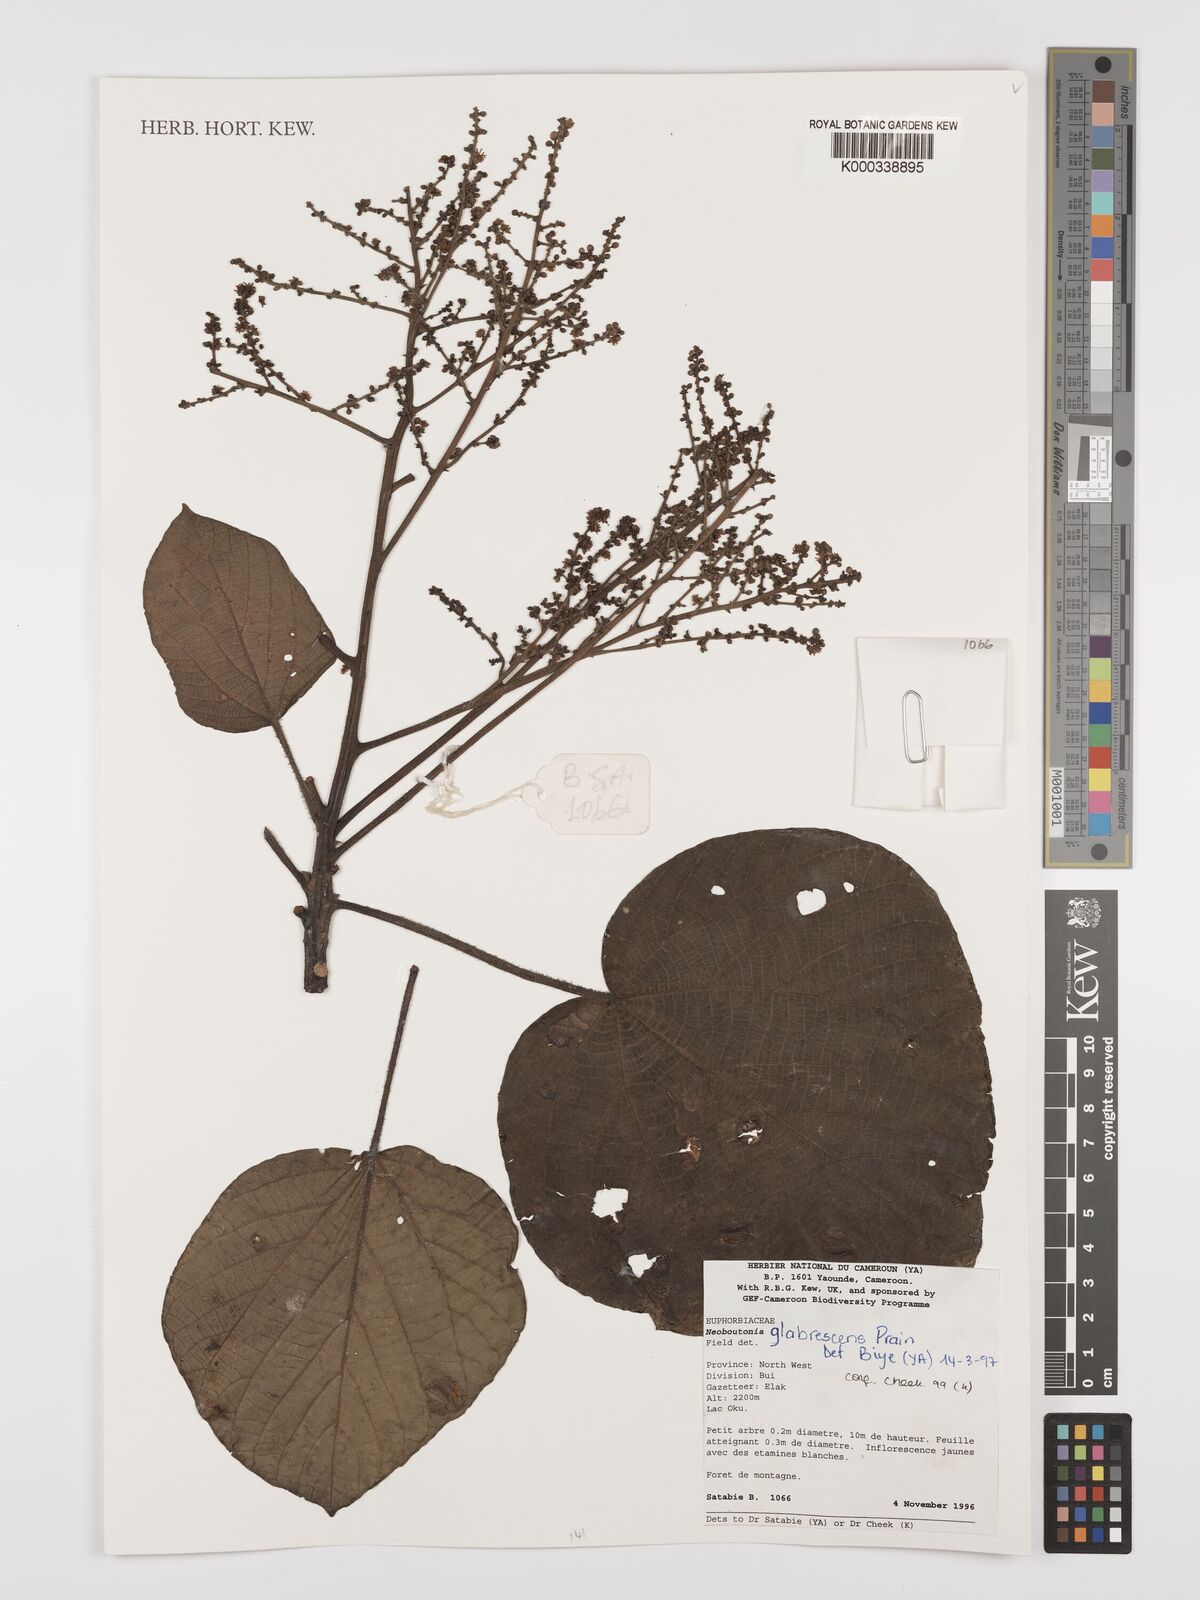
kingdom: Plantae
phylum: Tracheophyta
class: Magnoliopsida
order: Malpighiales
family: Euphorbiaceae
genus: Neoboutonia
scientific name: Neoboutonia mannii
